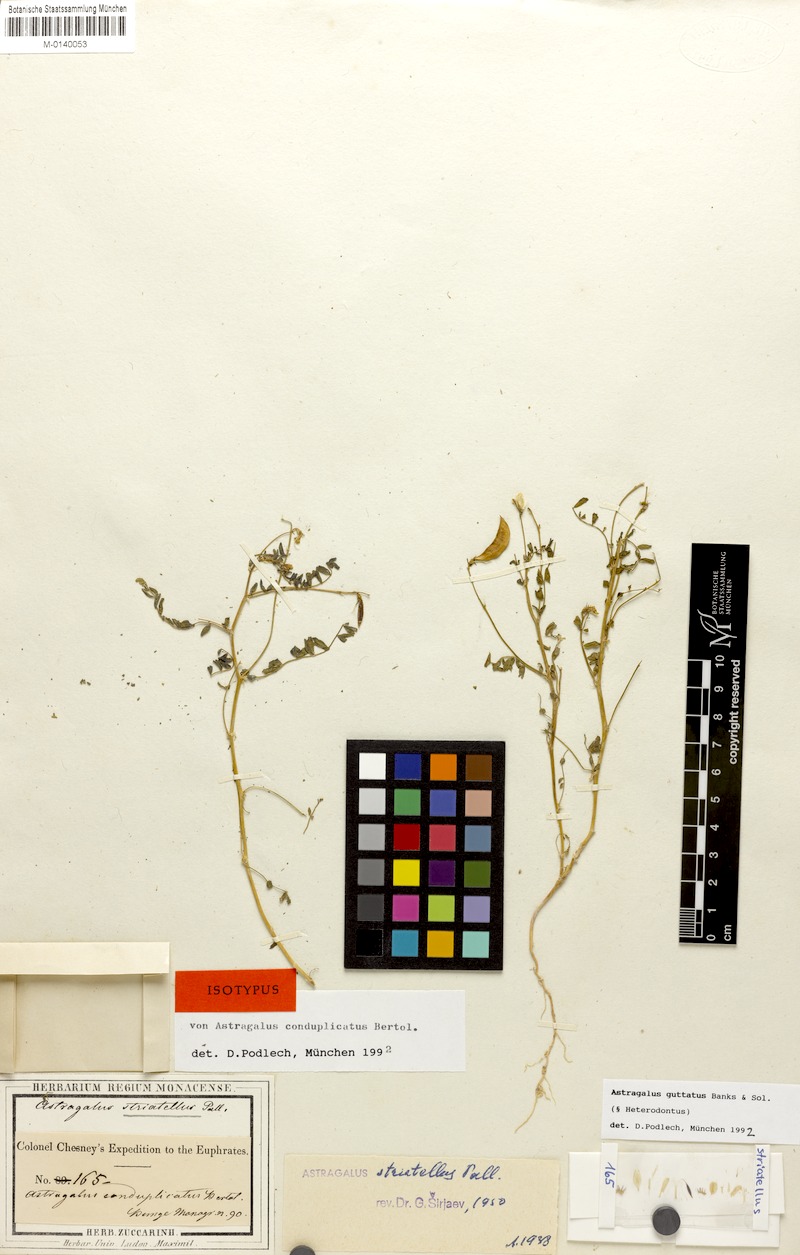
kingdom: Plantae
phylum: Tracheophyta
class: Magnoliopsida
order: Fabales
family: Fabaceae
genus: Astragalus
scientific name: Astragalus guttatus
